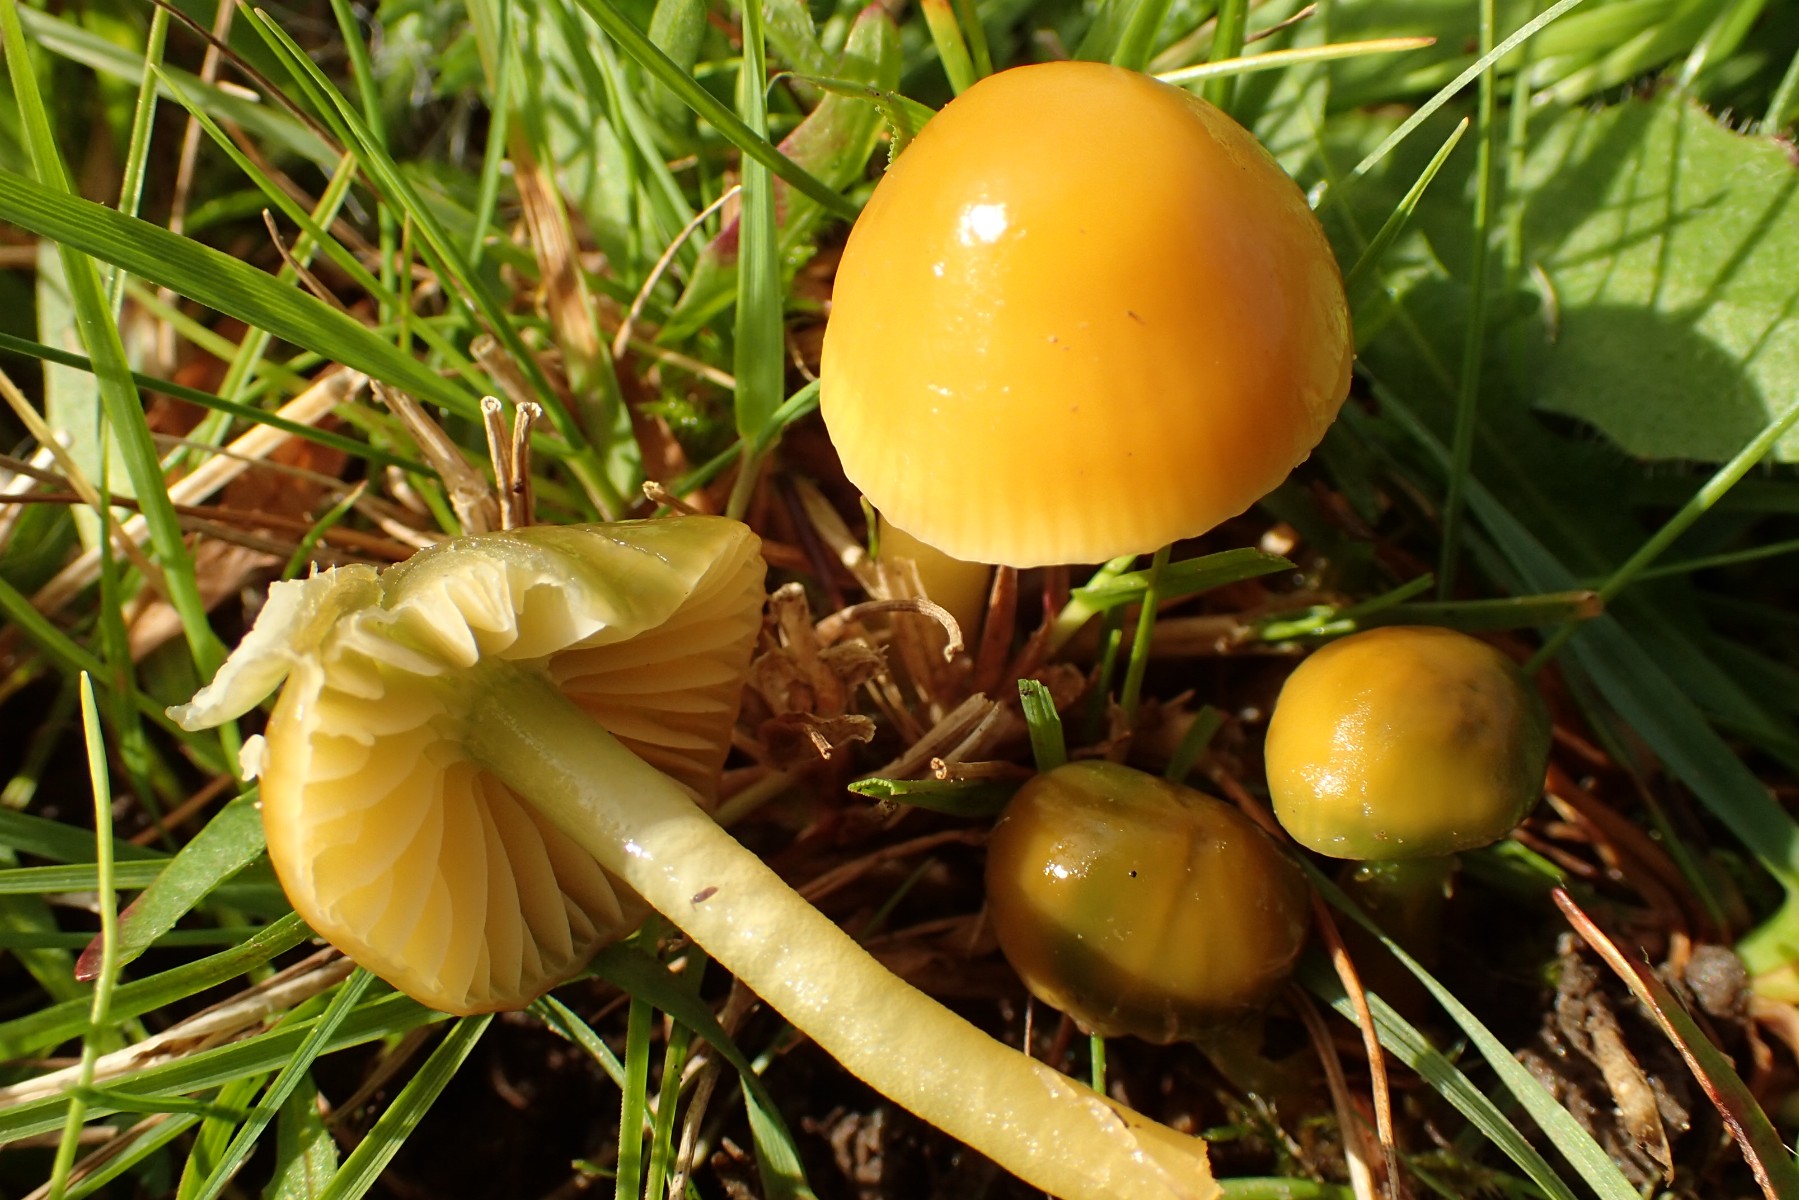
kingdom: Fungi
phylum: Basidiomycota
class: Agaricomycetes
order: Agaricales
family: Hygrophoraceae
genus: Gliophorus
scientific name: Gliophorus psittacinus
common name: papegøje-vokshat
